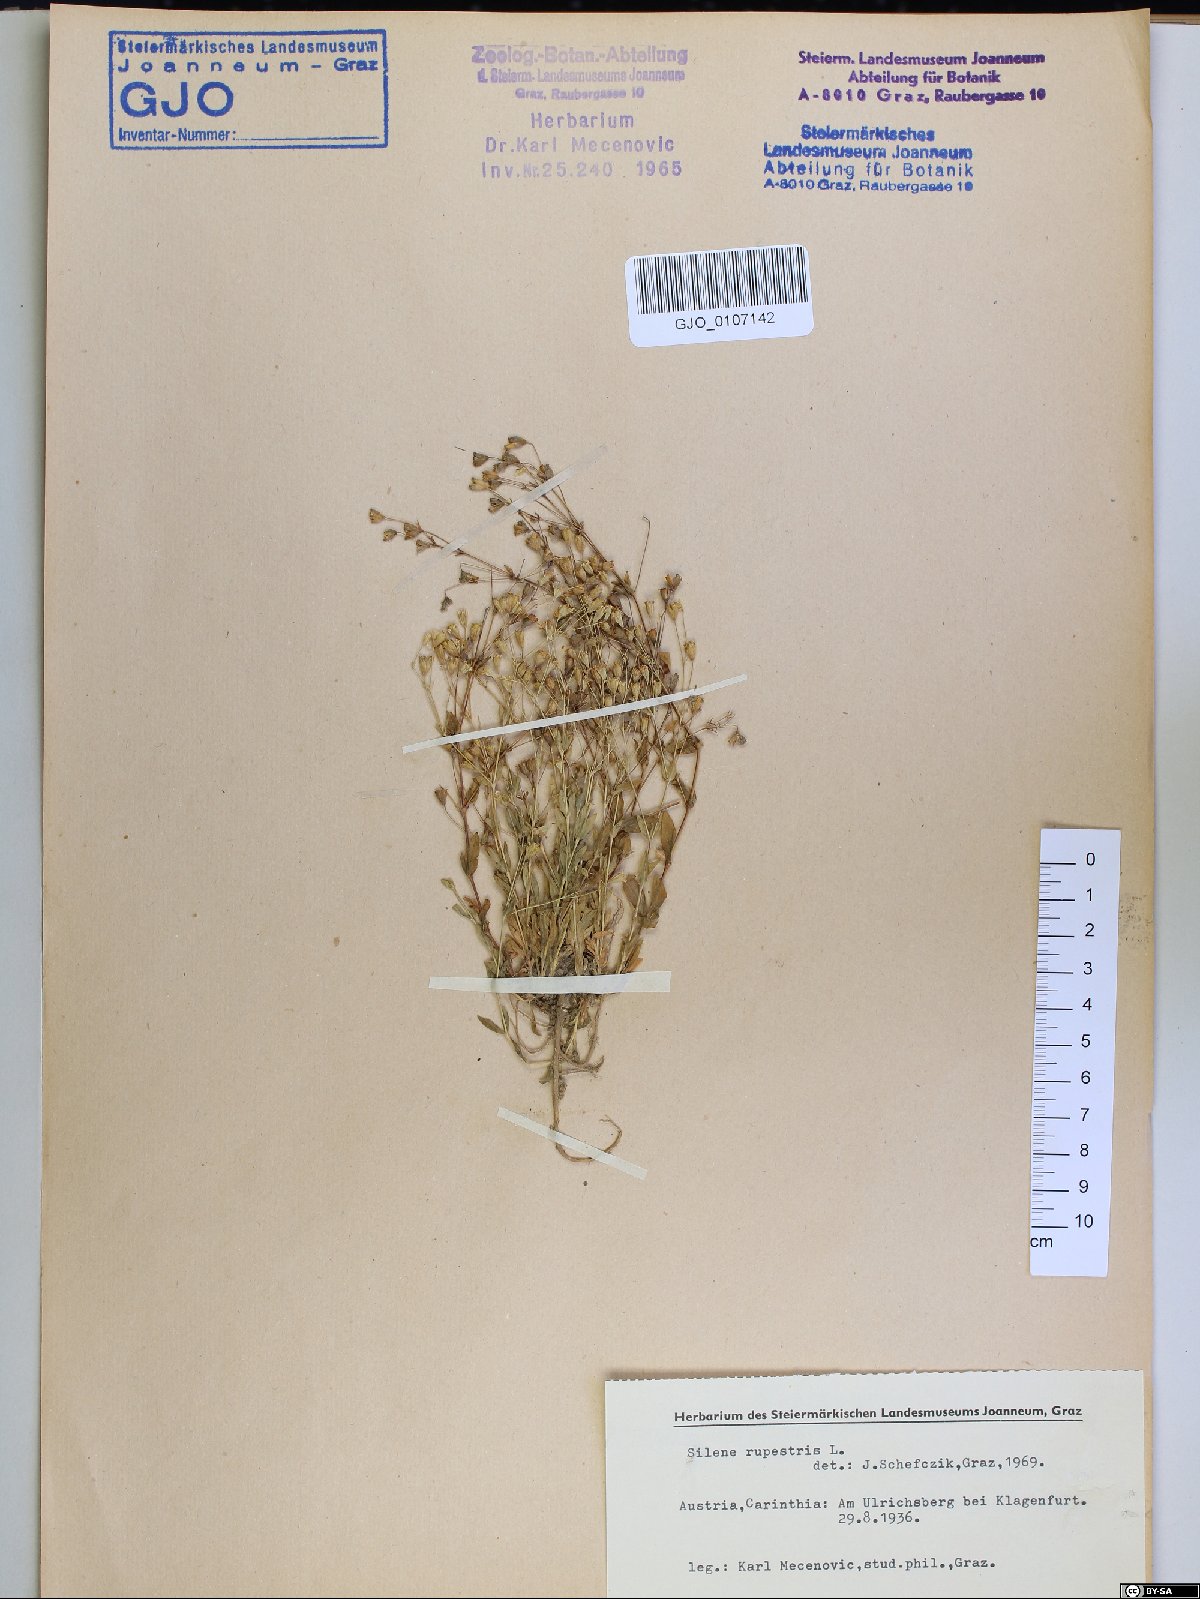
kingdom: Plantae
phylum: Tracheophyta
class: Magnoliopsida
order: Caryophyllales
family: Caryophyllaceae
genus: Atocion
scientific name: Atocion rupestre
